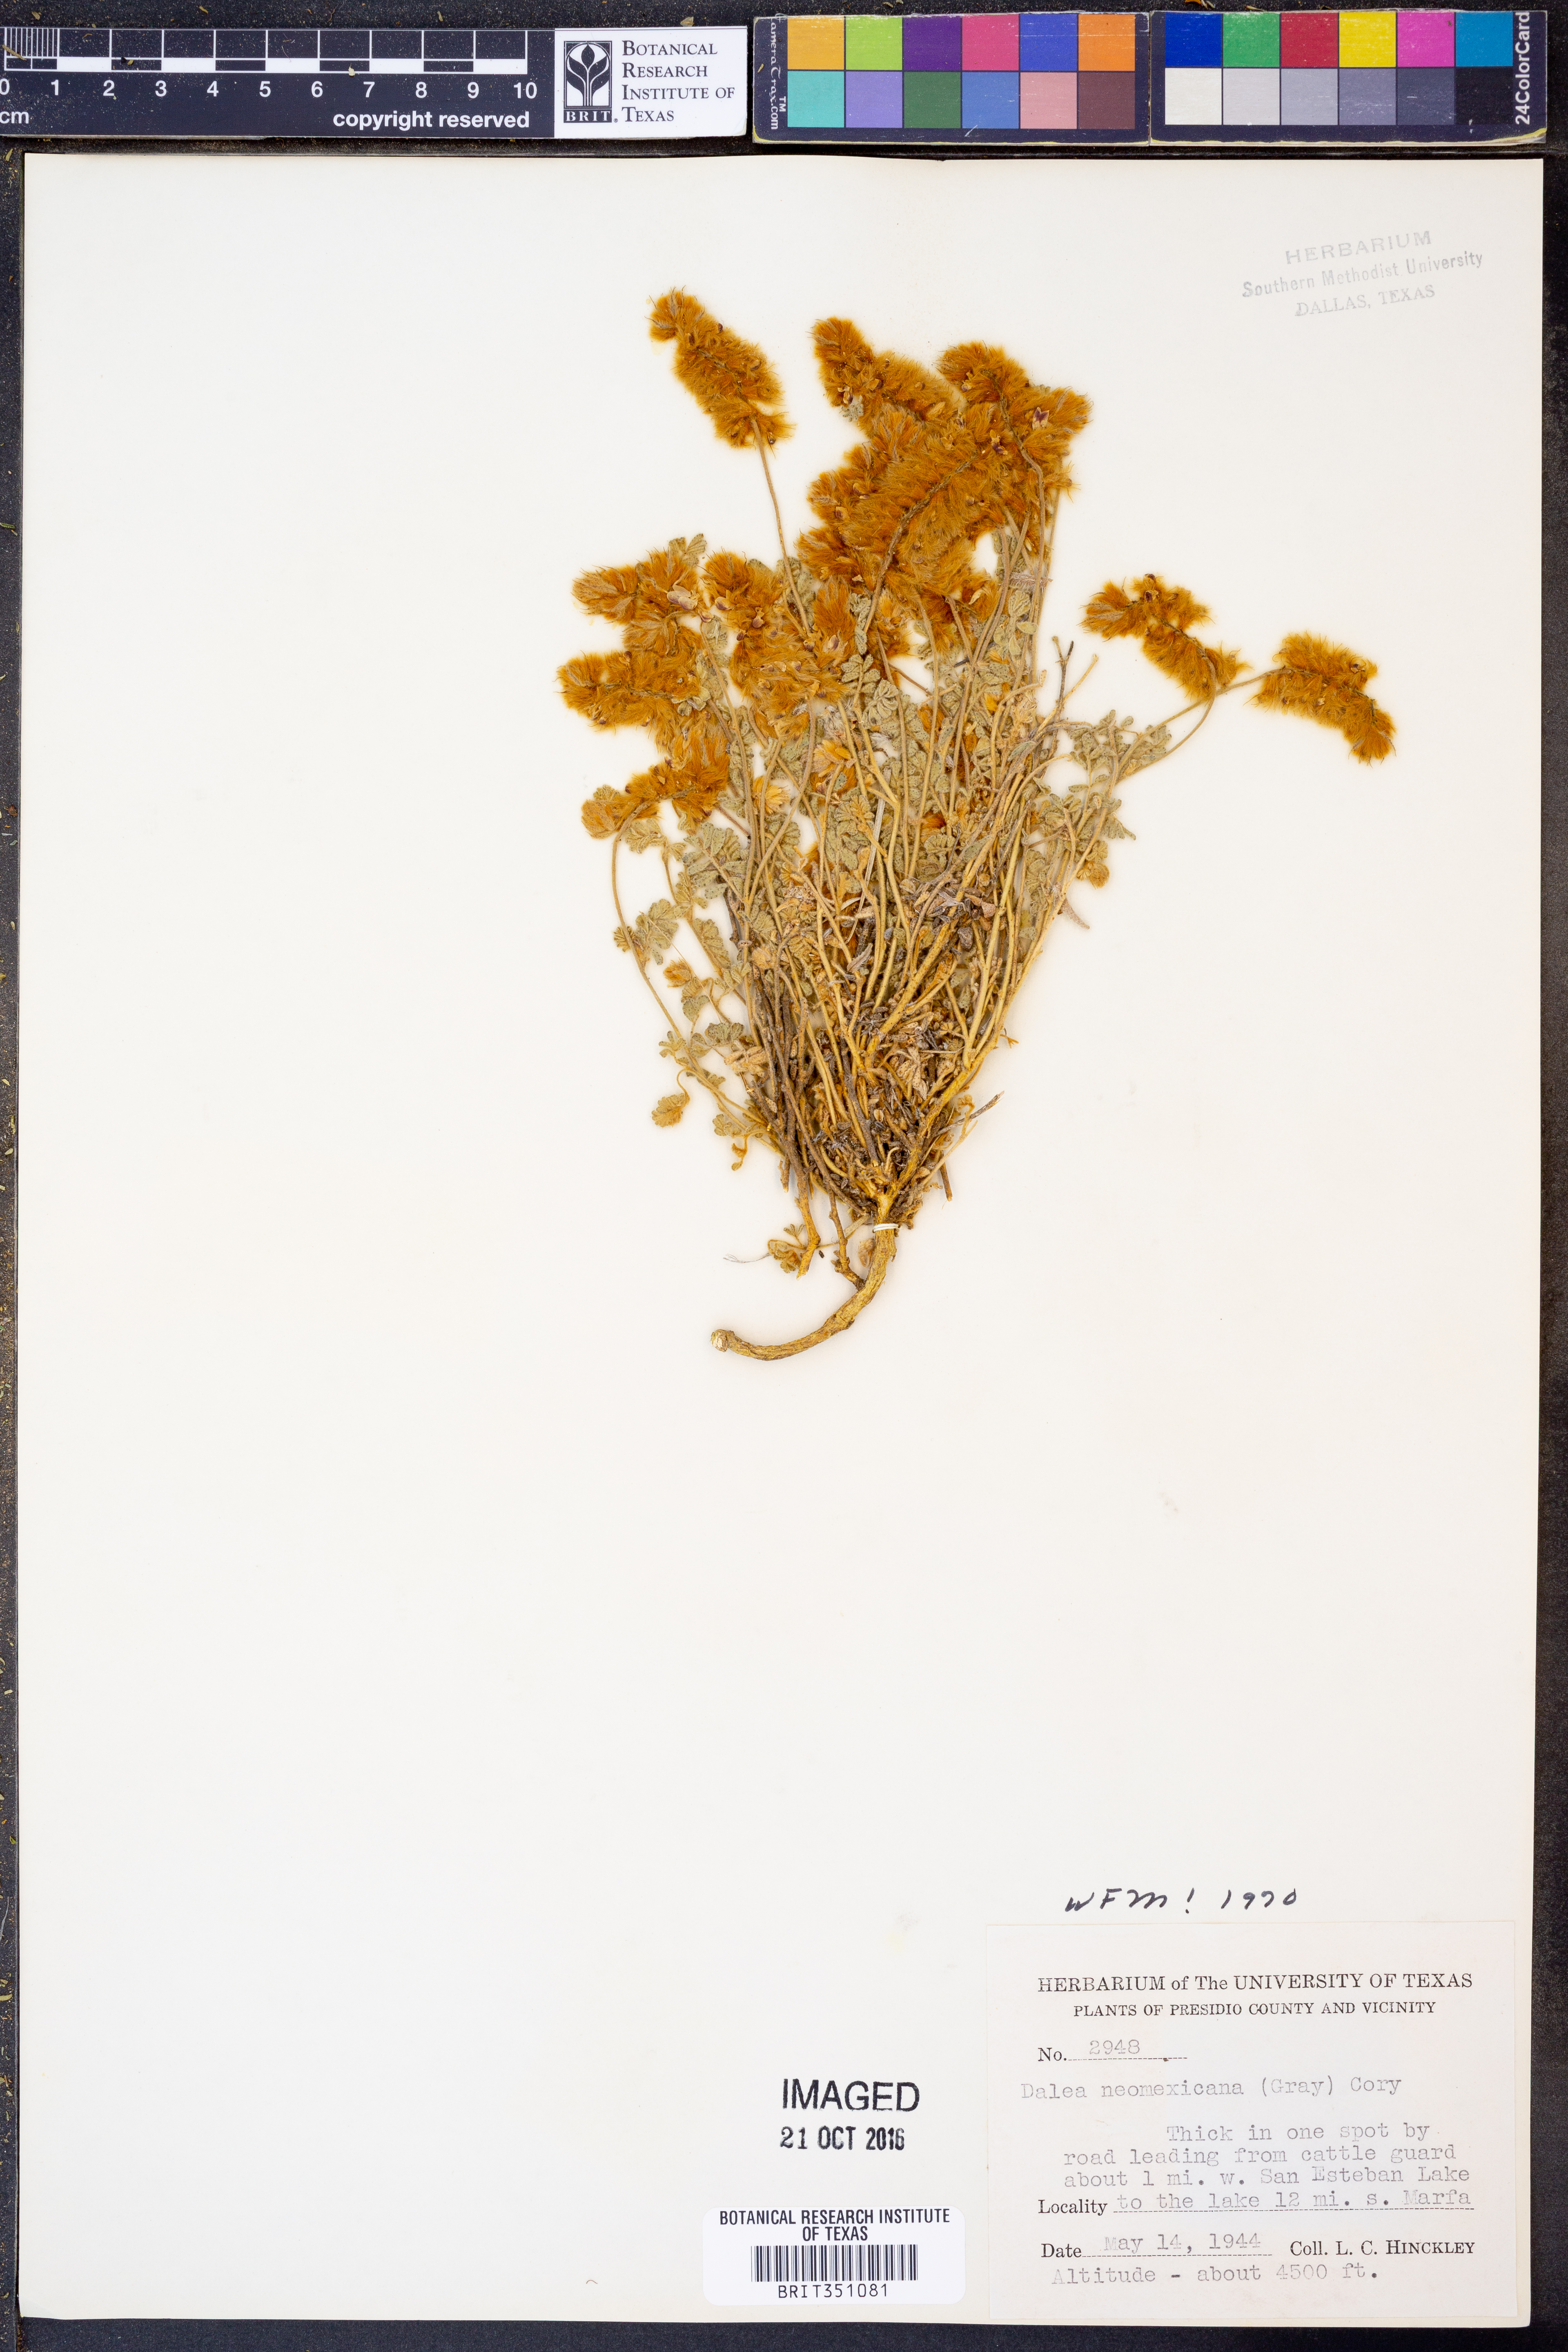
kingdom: Plantae
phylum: Tracheophyta
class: Magnoliopsida
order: Fabales
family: Fabaceae
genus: Dalea
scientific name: Dalea neomexicana
